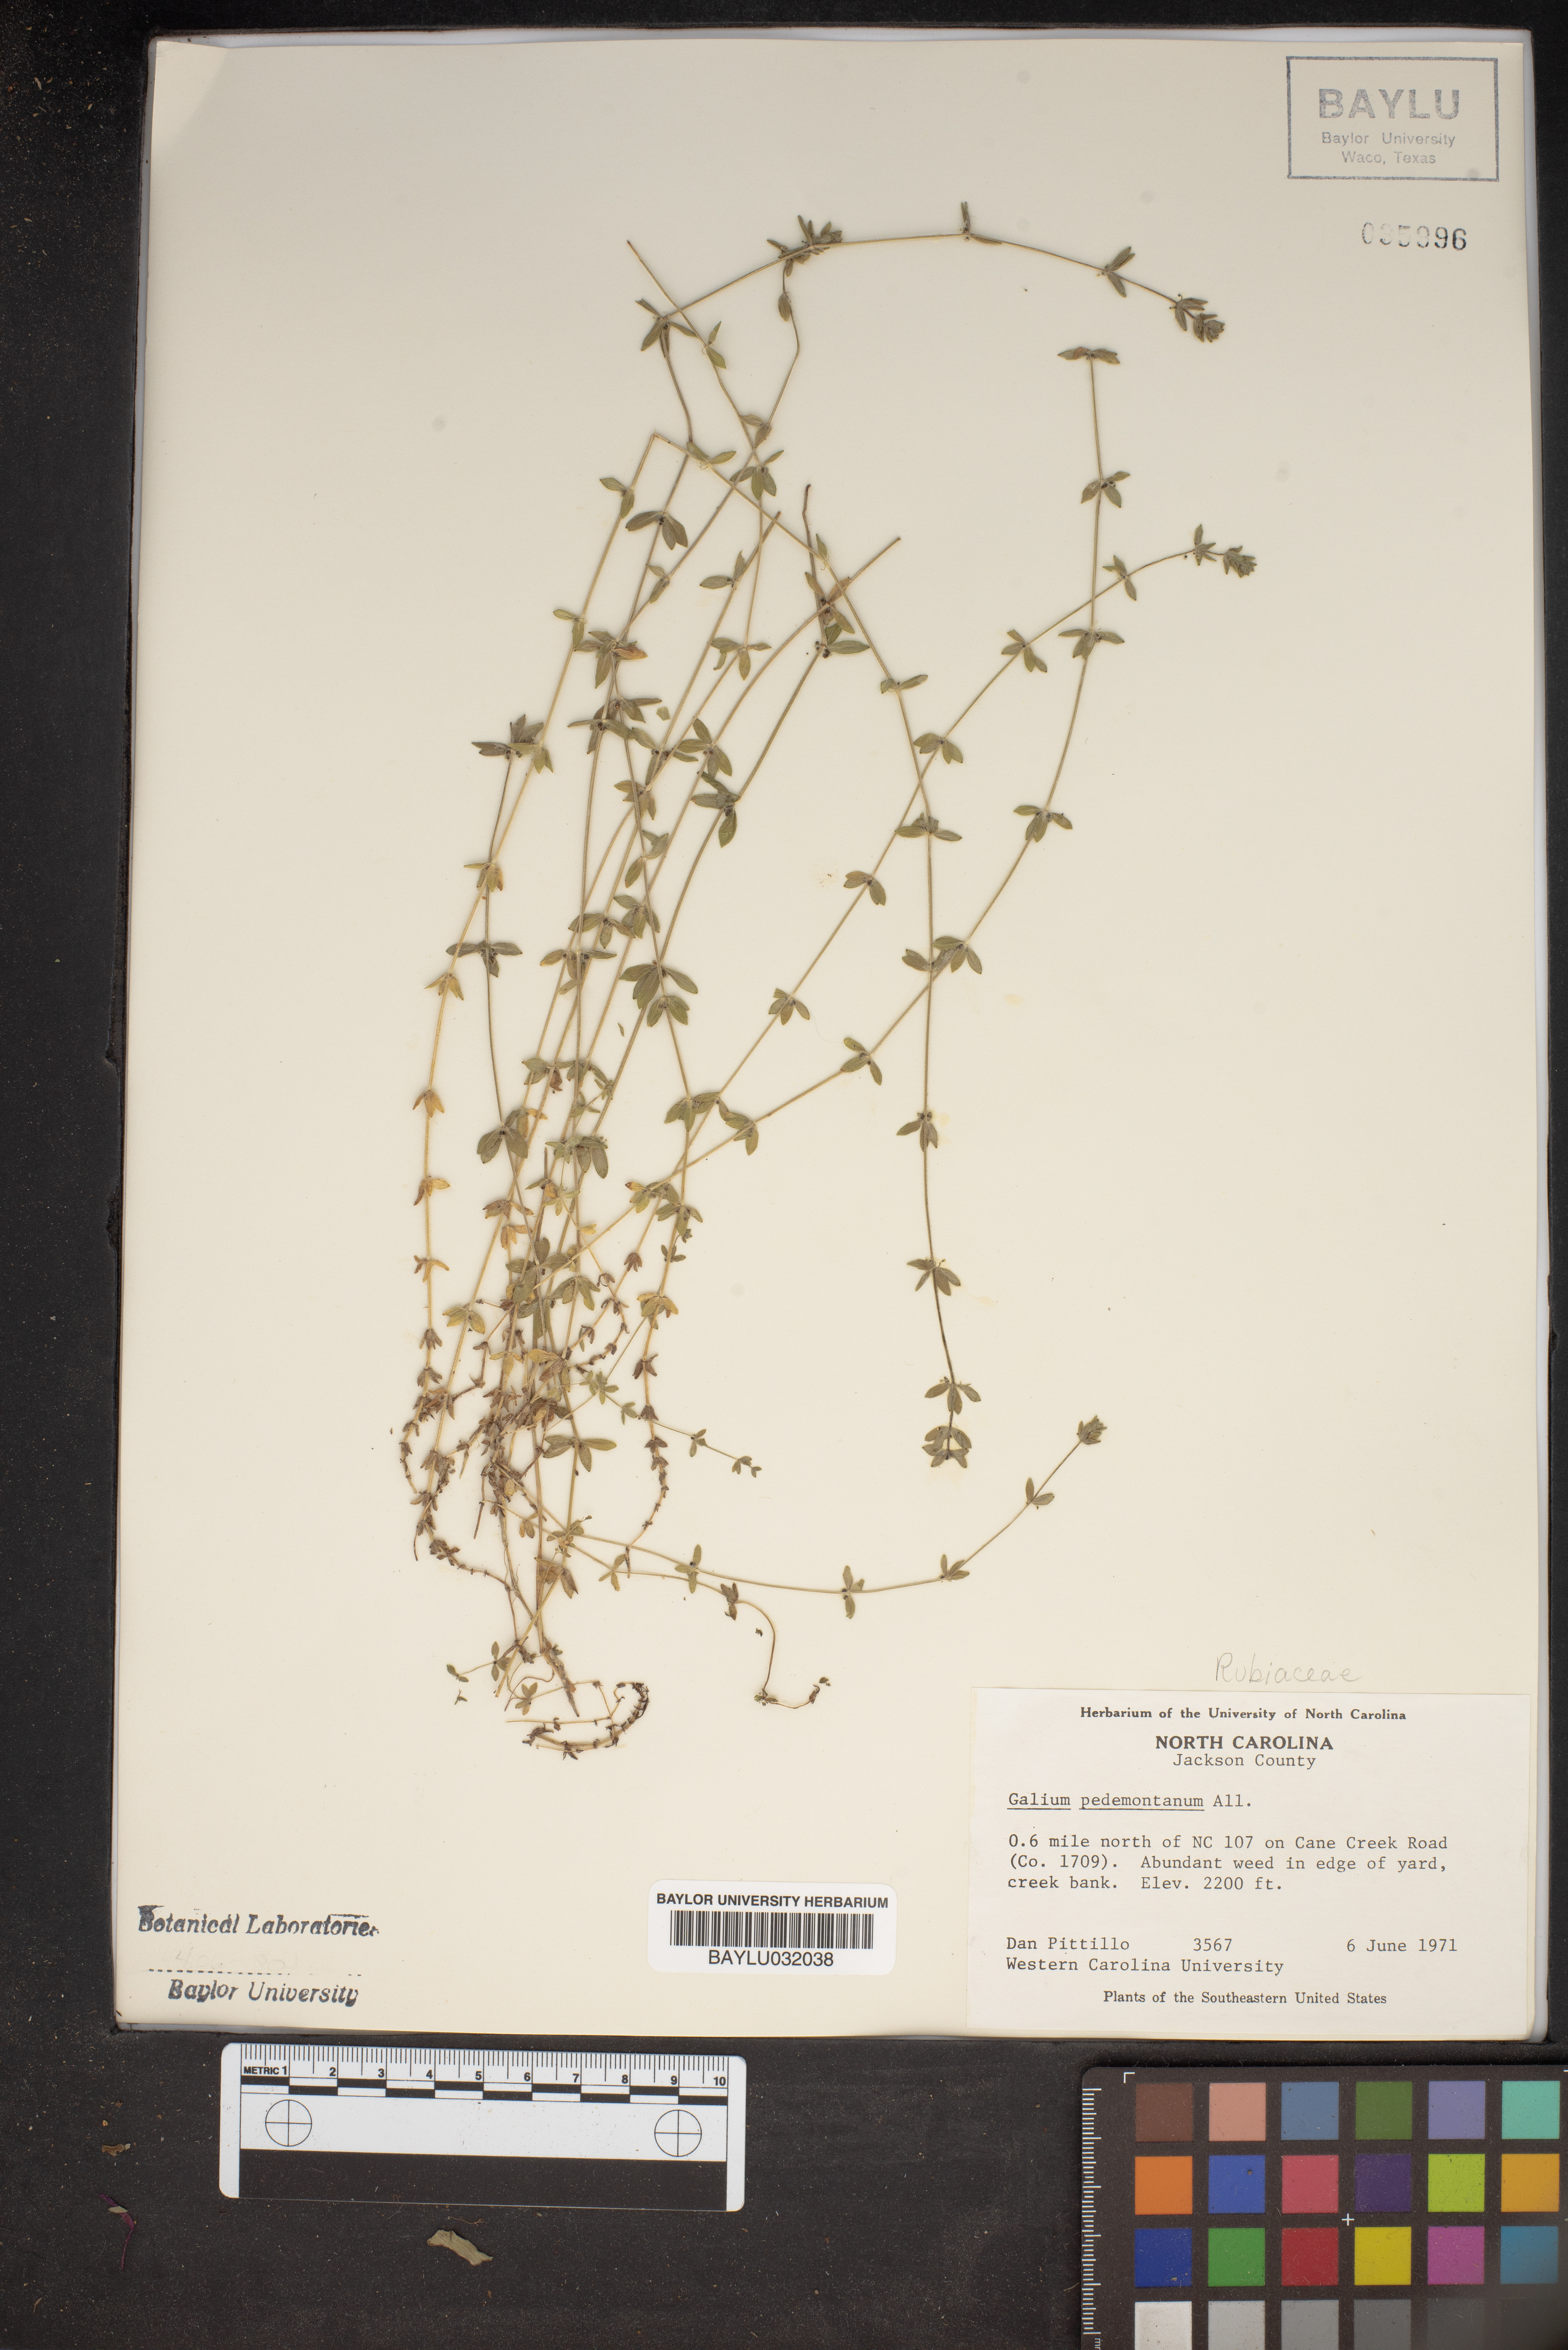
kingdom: Plantae
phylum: Tracheophyta
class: Magnoliopsida
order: Gentianales
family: Rubiaceae
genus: Cruciata
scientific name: Cruciata pedemontana
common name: Piedmont bedstraw
